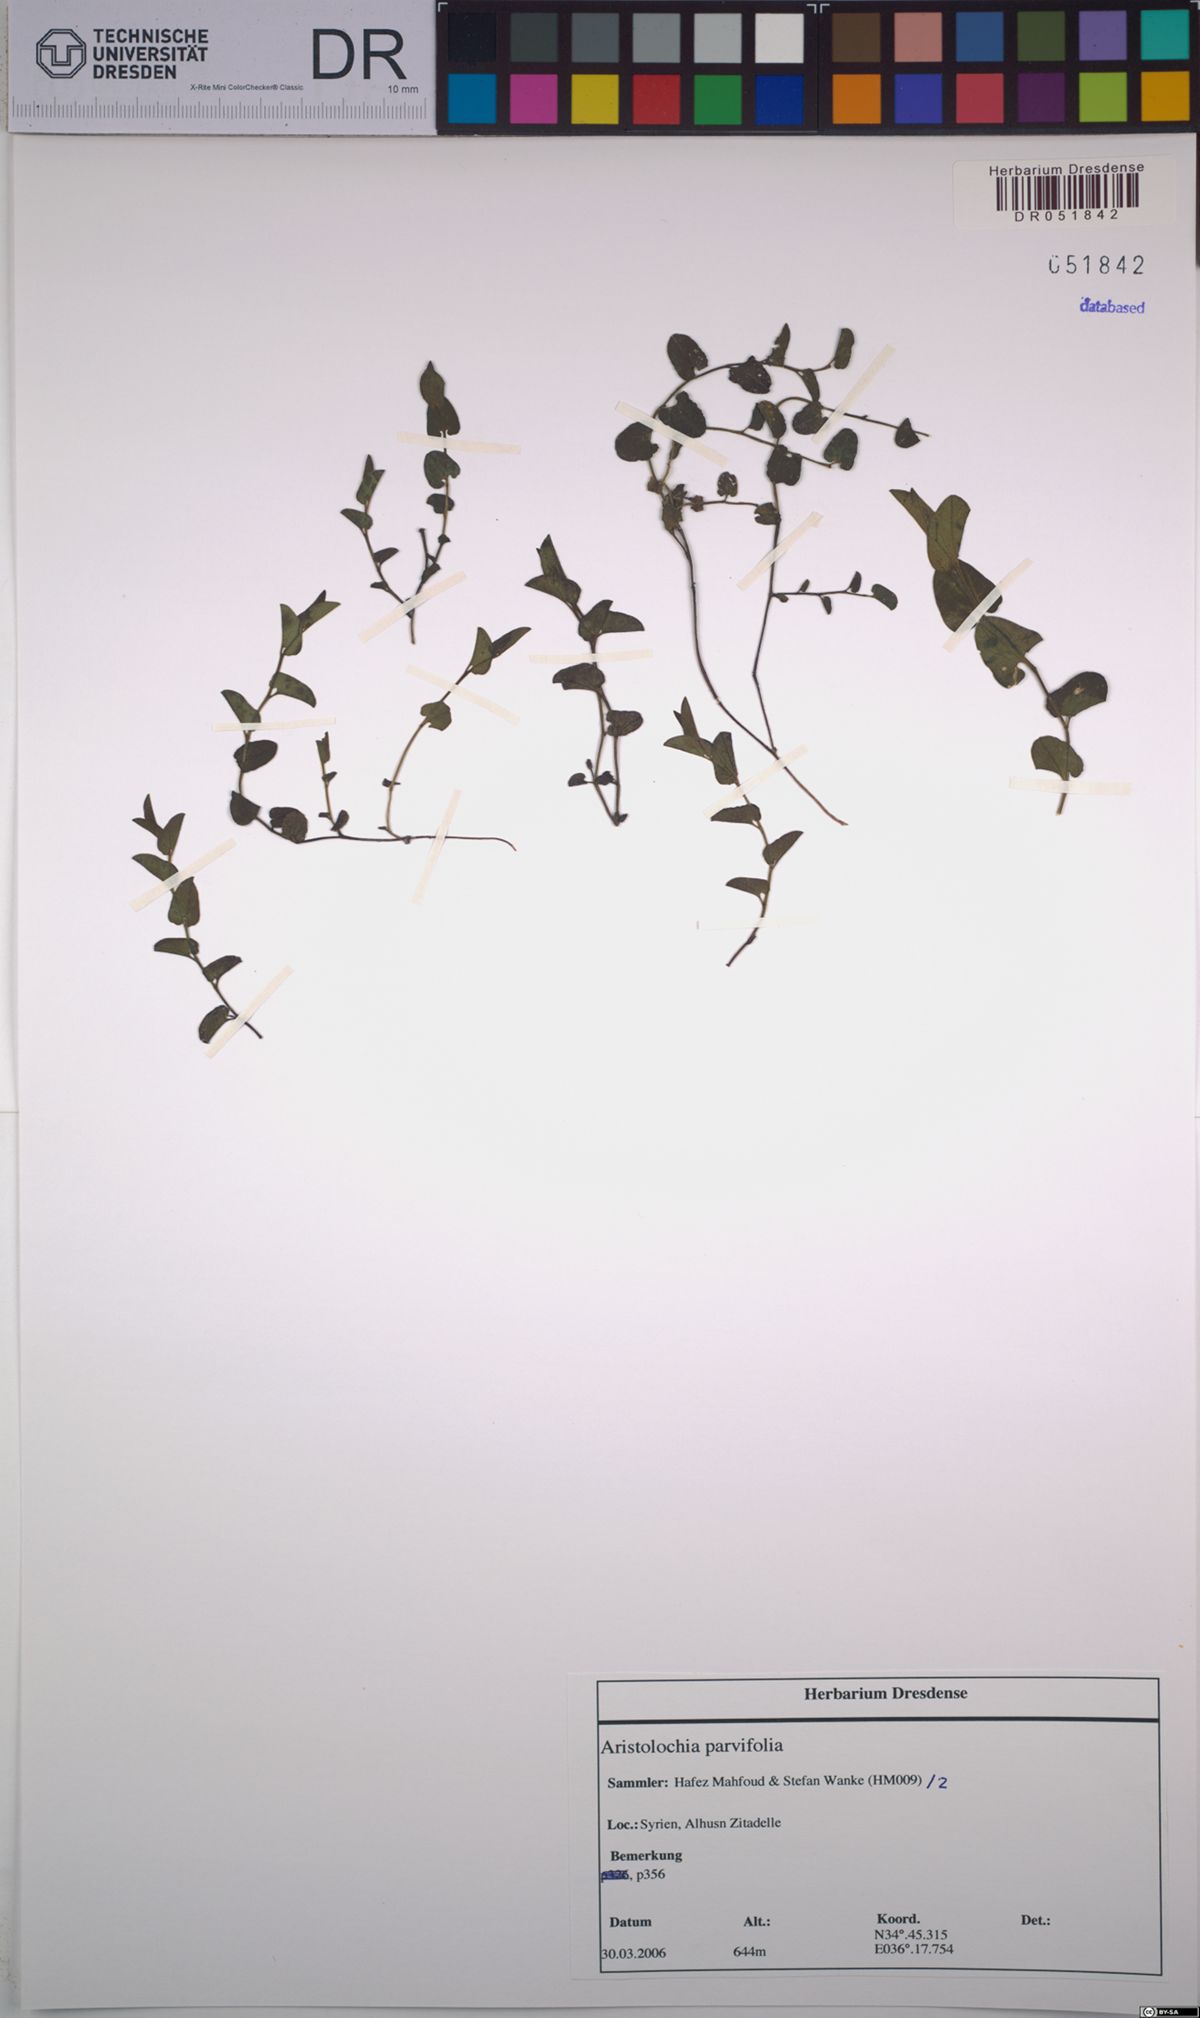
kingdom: Plantae
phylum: Tracheophyta
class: Magnoliopsida
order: Piperales
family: Aristolochiaceae
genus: Aristolochia
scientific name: Aristolochia parvifolia
